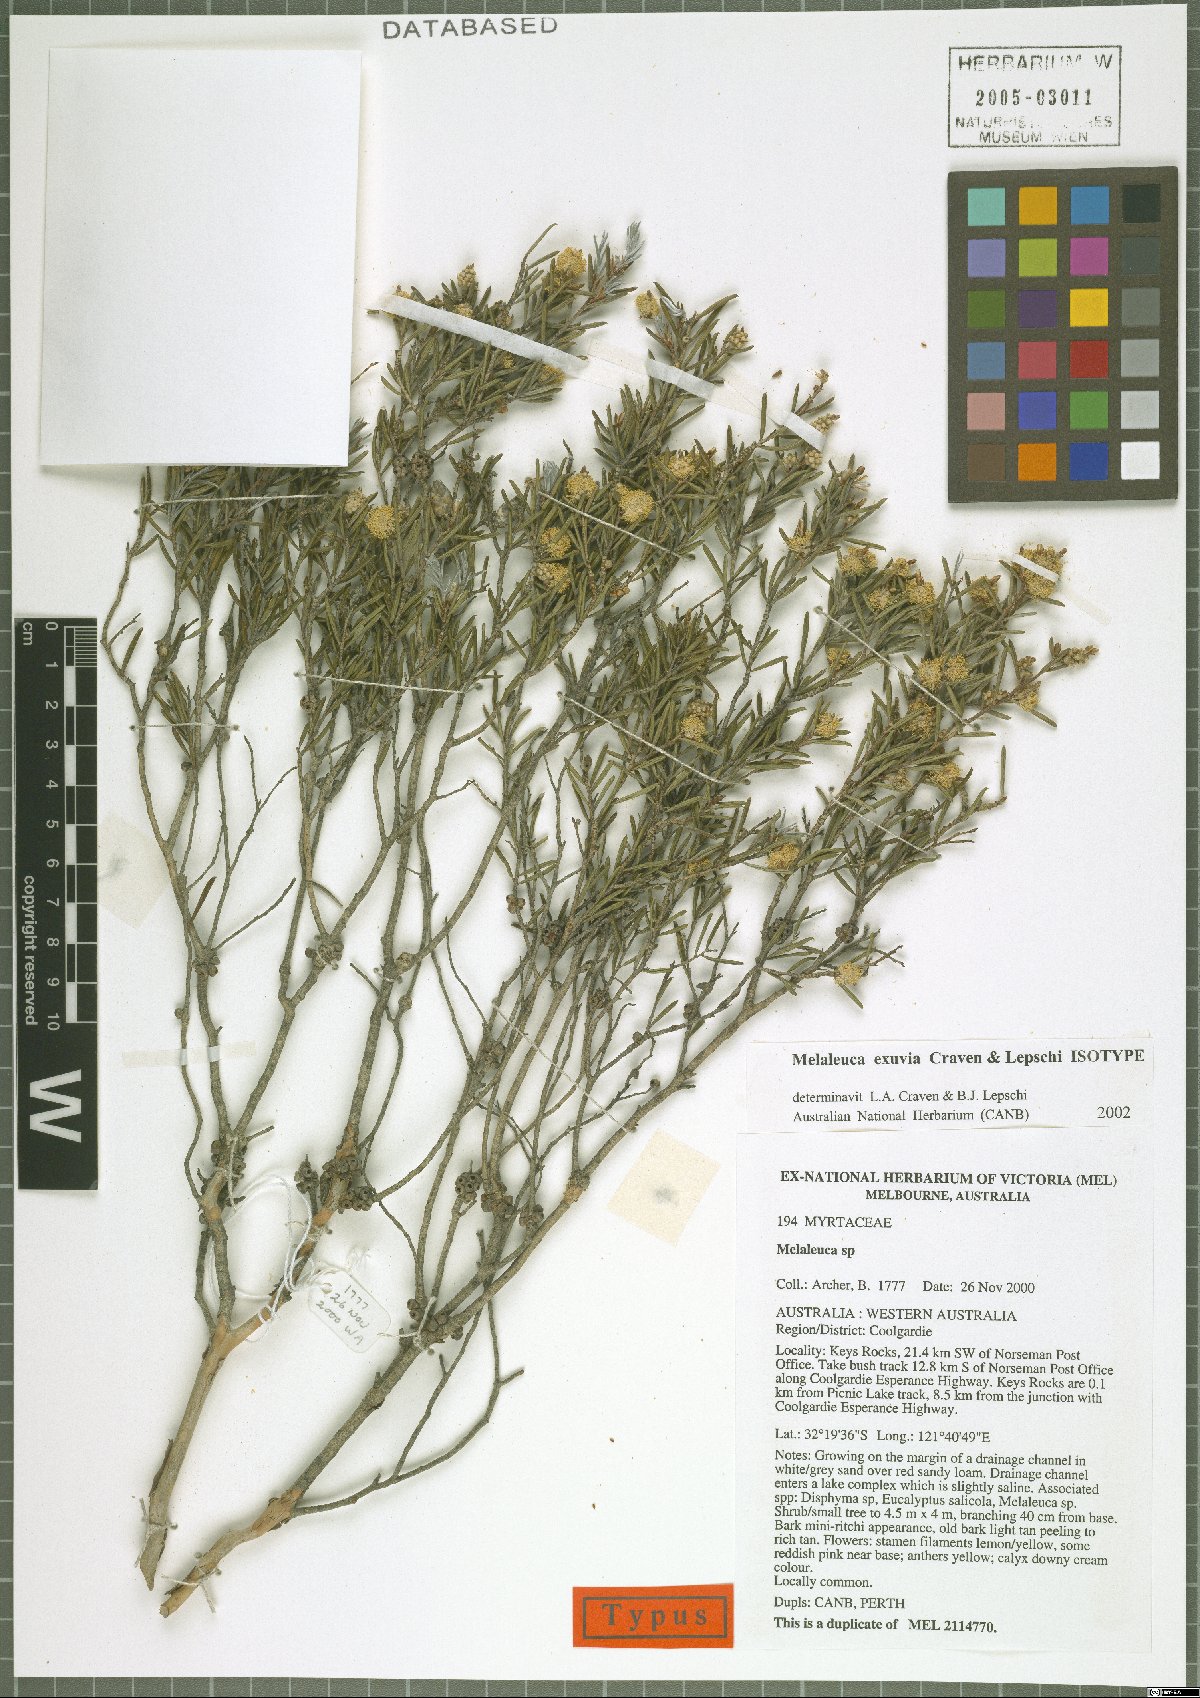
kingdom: Plantae
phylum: Tracheophyta
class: Magnoliopsida
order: Myrtales
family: Myrtaceae
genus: Melaleuca
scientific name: Melaleuca exuvia
